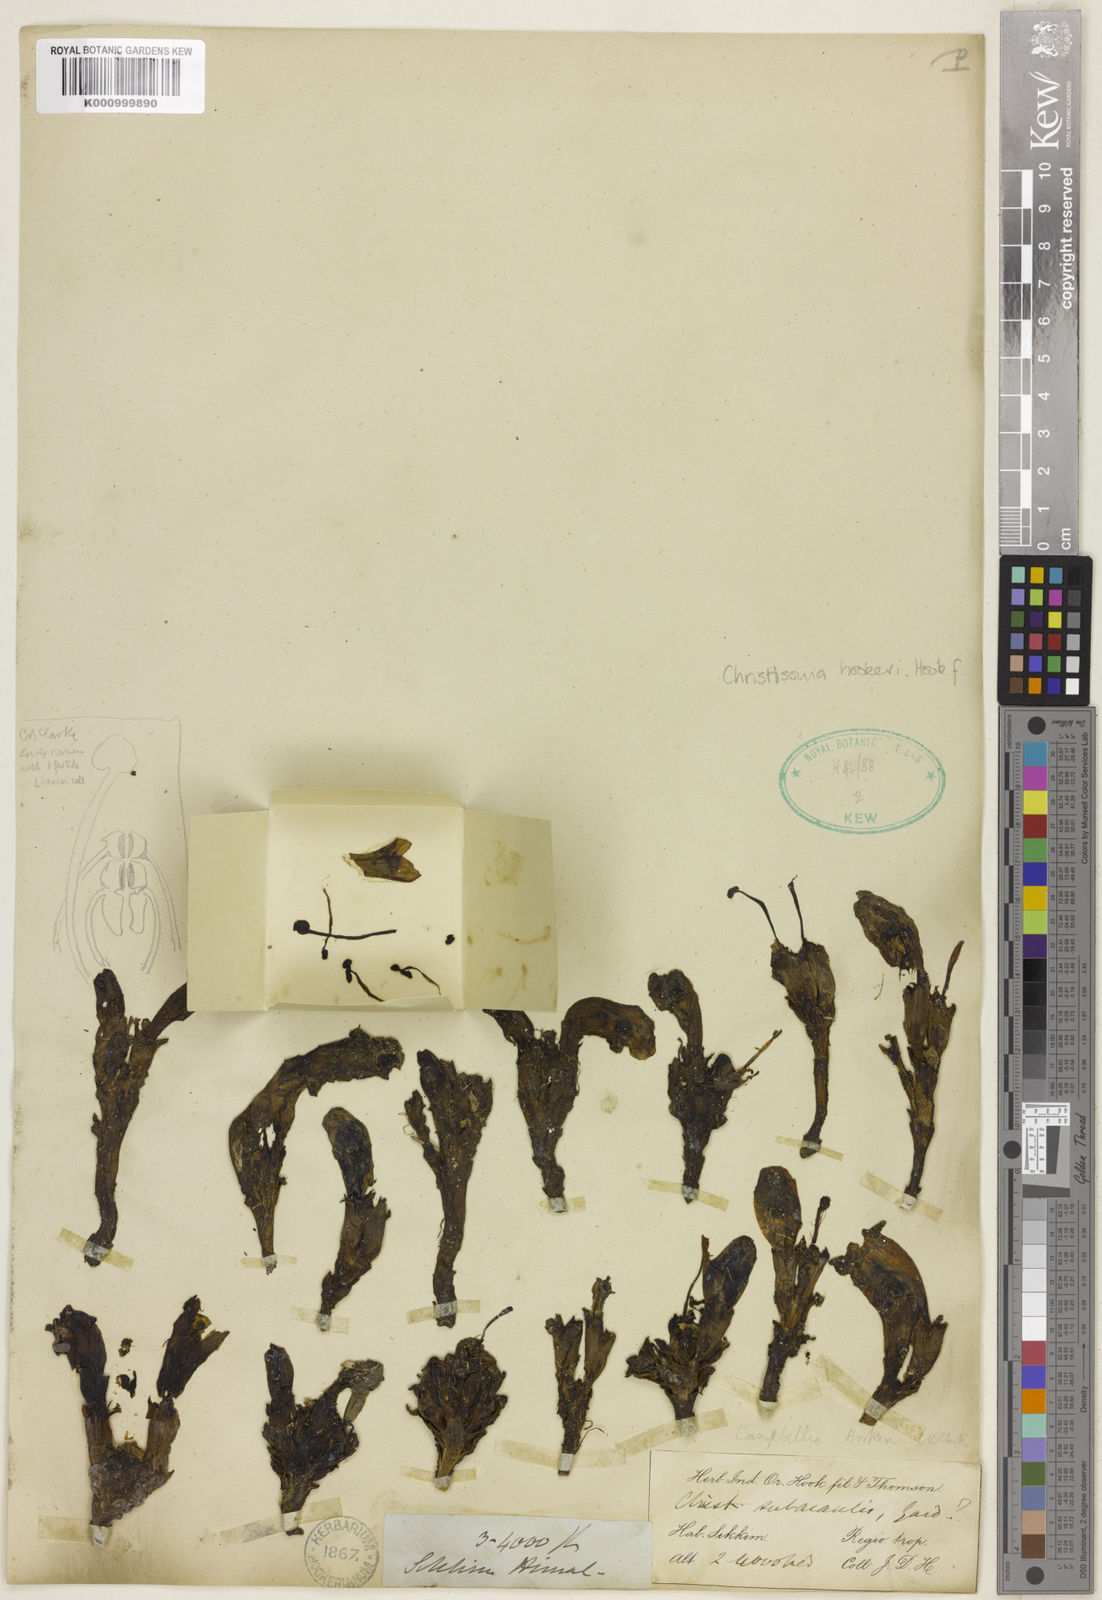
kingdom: Plantae
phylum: Tracheophyta
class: Magnoliopsida
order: Lamiales
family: Orobanchaceae
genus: Christisonia
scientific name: Christisonia
